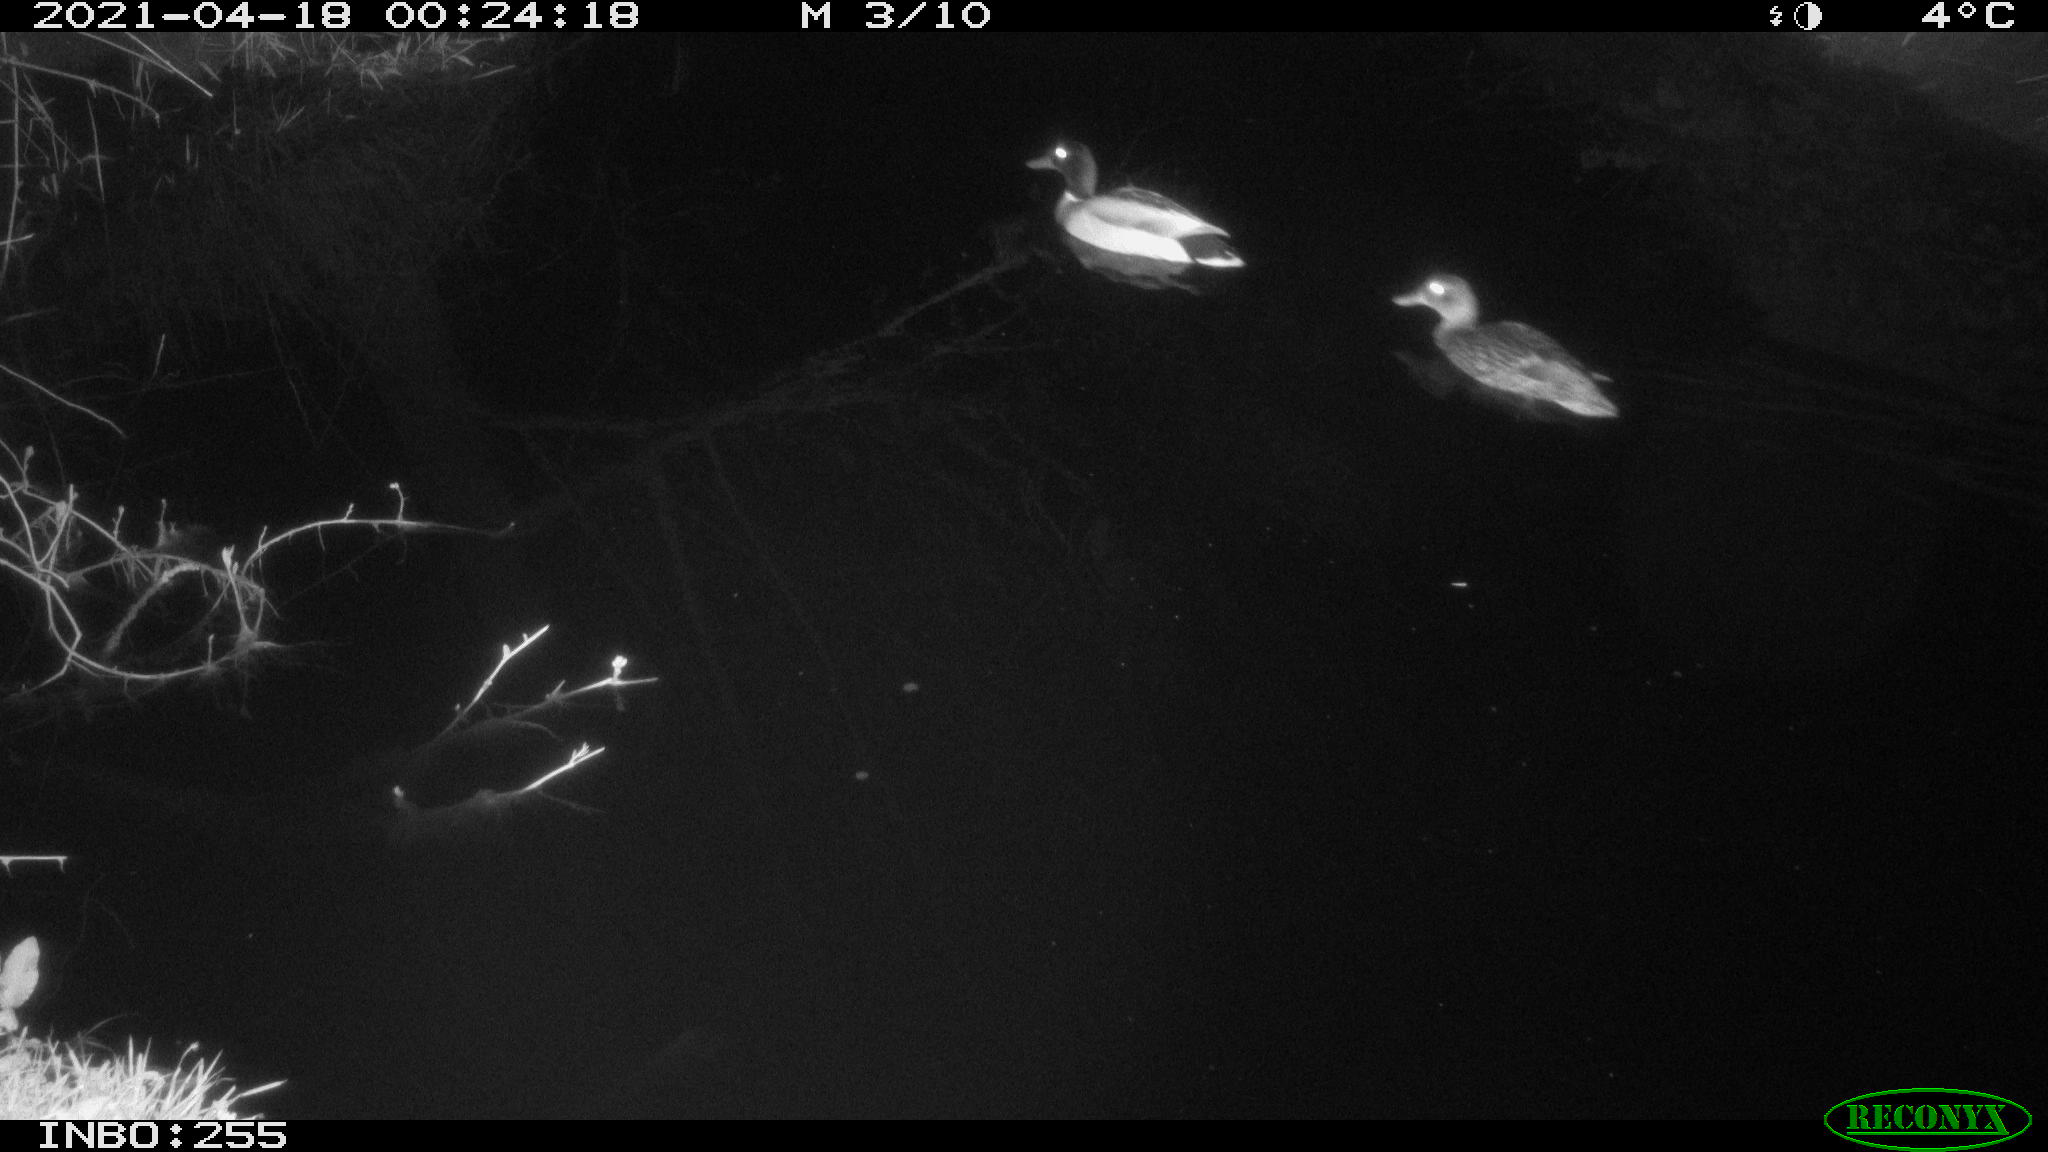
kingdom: Animalia
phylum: Chordata
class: Aves
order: Anseriformes
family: Anatidae
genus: Anas
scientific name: Anas platyrhynchos
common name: Mallard
